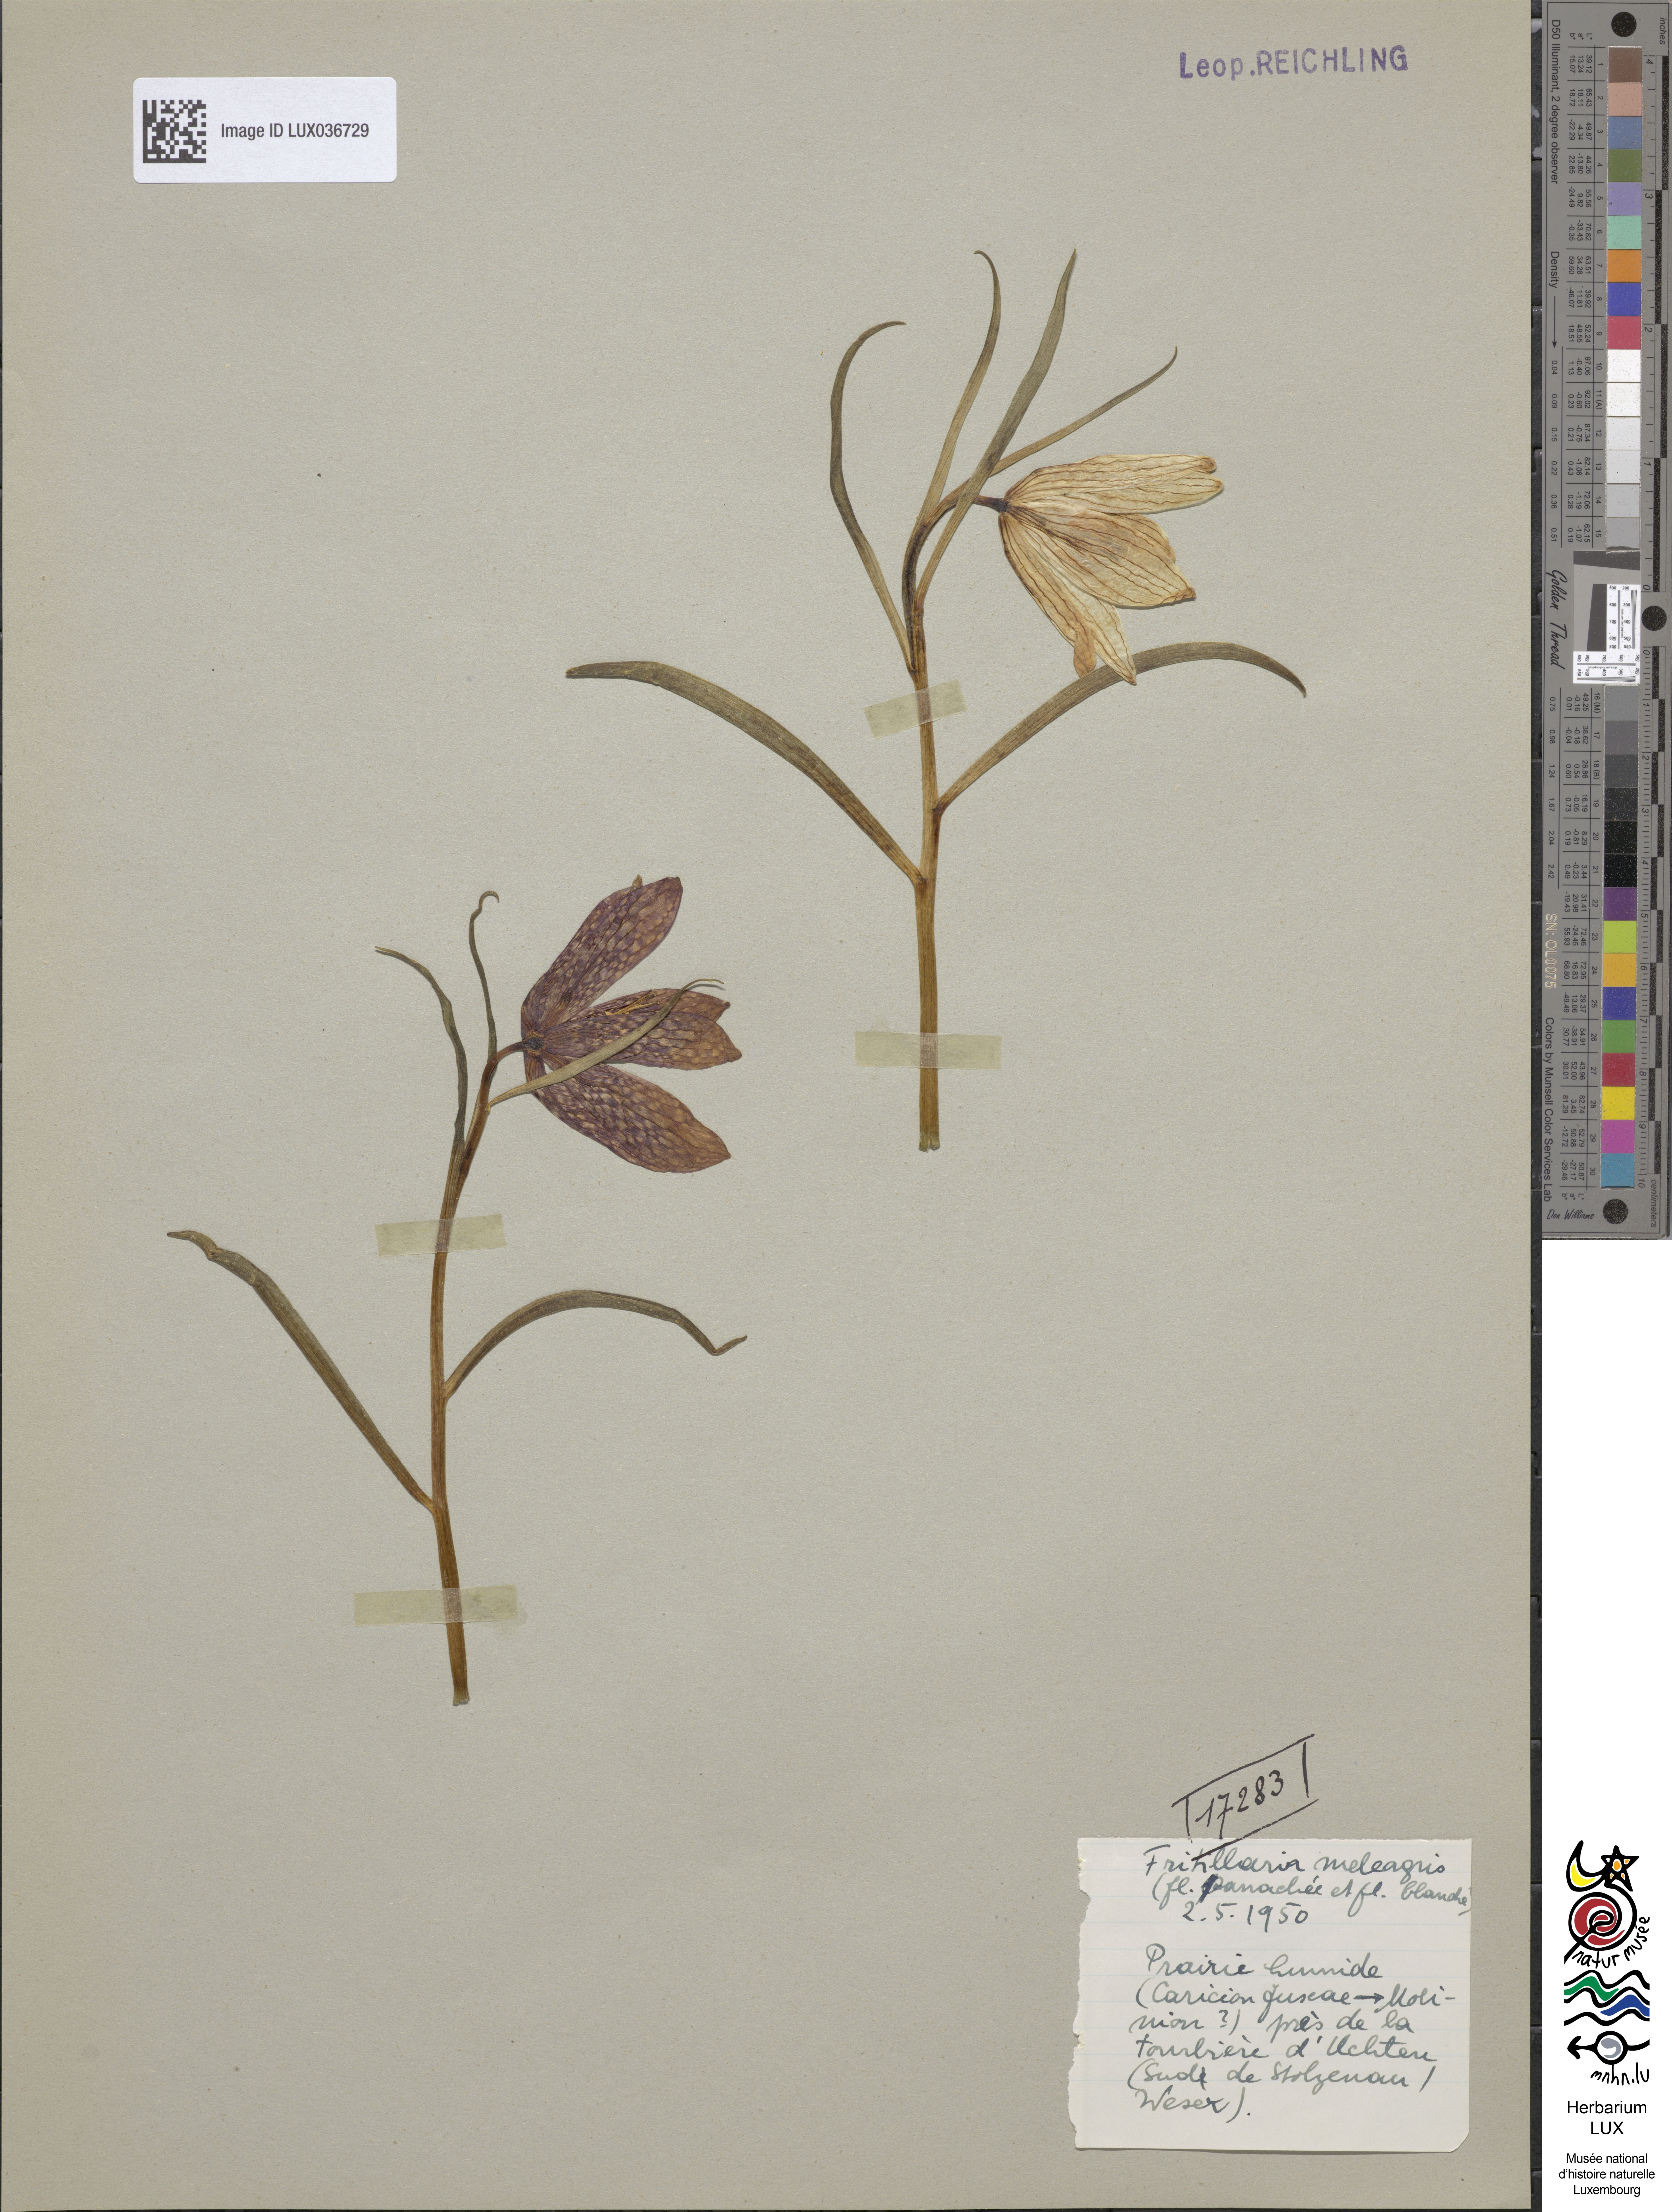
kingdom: Plantae
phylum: Tracheophyta
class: Liliopsida
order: Liliales
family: Liliaceae
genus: Fritillaria
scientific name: Fritillaria meleagris
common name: Fritillary
